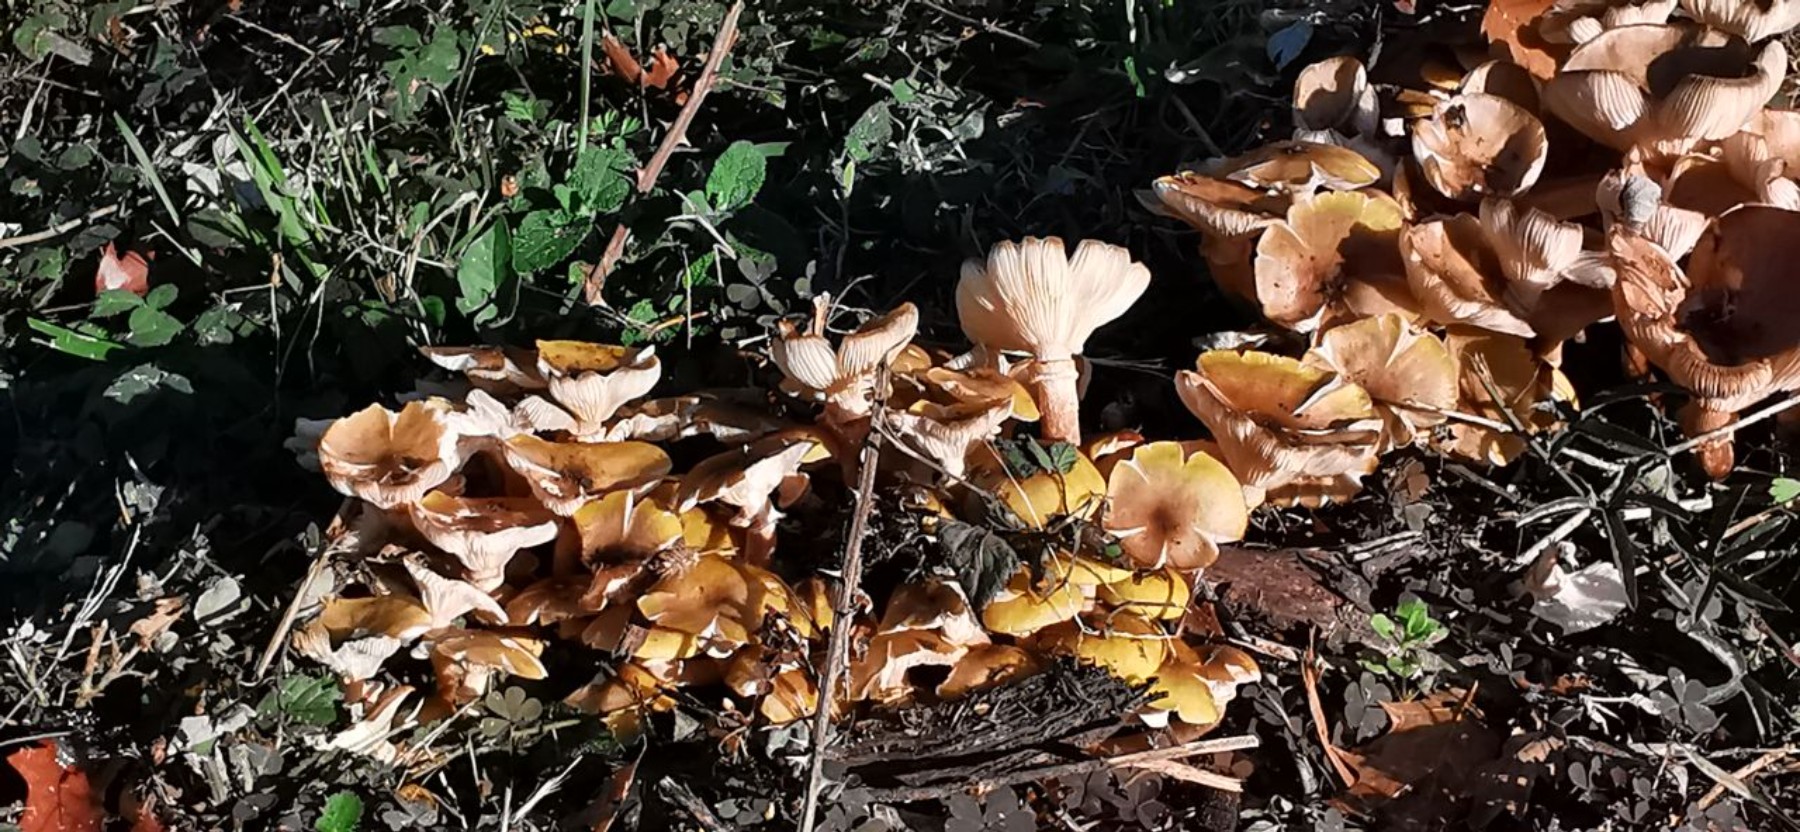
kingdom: Fungi
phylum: Basidiomycota
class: Agaricomycetes
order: Agaricales
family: Physalacriaceae
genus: Armillaria
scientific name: Armillaria mellea
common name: ægte honningsvamp
